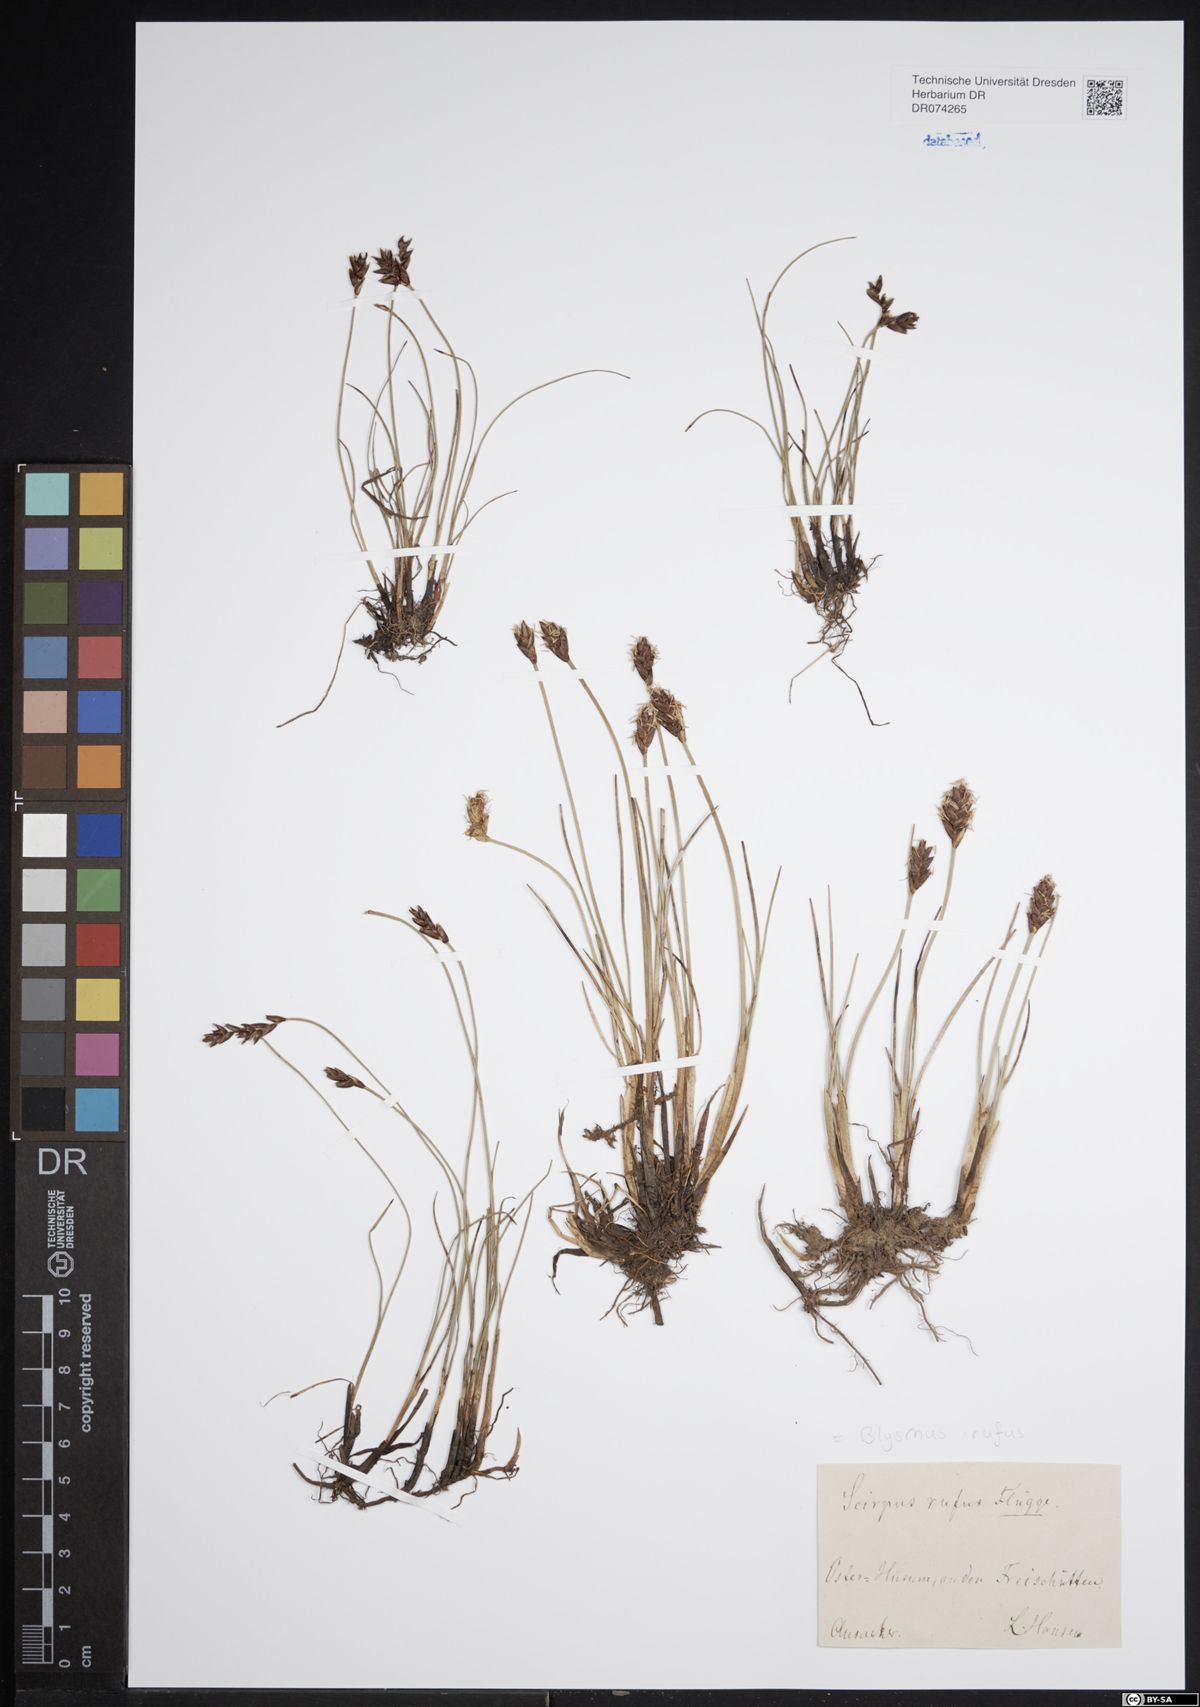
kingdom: Plantae
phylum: Tracheophyta
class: Liliopsida
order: Poales
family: Cyperaceae
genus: Blysmus
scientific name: Blysmus rufus
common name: Saltmarsh flat-sedge
